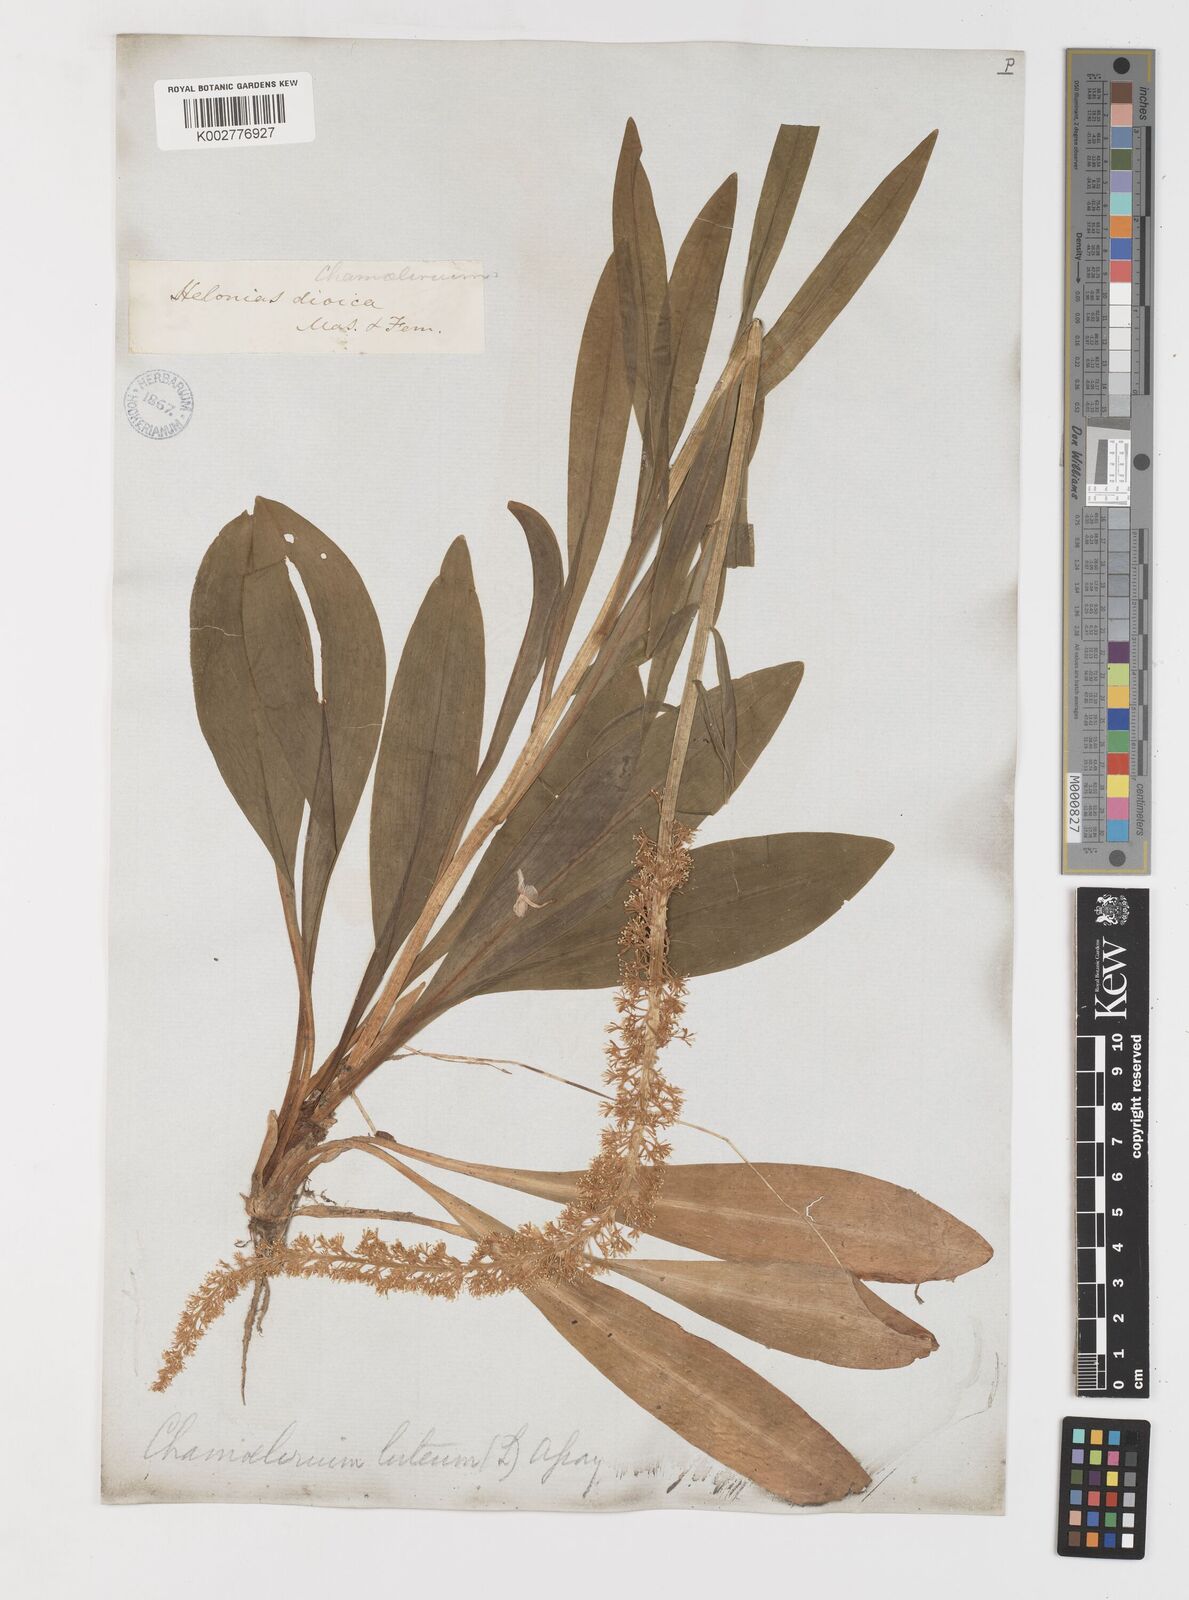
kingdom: Plantae
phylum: Tracheophyta
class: Liliopsida
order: Liliales
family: Melanthiaceae
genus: Chamaelirium
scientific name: Chamaelirium luteum
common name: Fairy-wand
